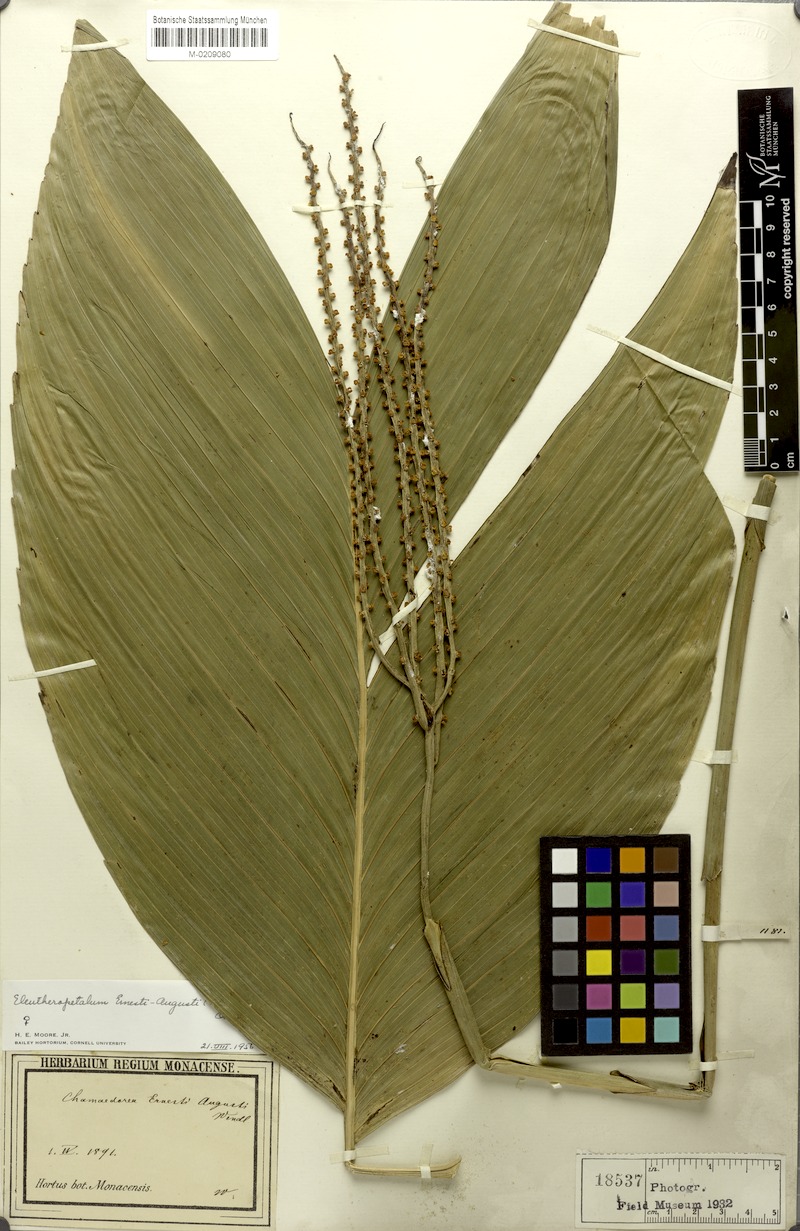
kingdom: Plantae
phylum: Tracheophyta
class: Liliopsida
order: Arecales
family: Arecaceae
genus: Chamaedorea
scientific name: Chamaedorea ernesti-augusti
